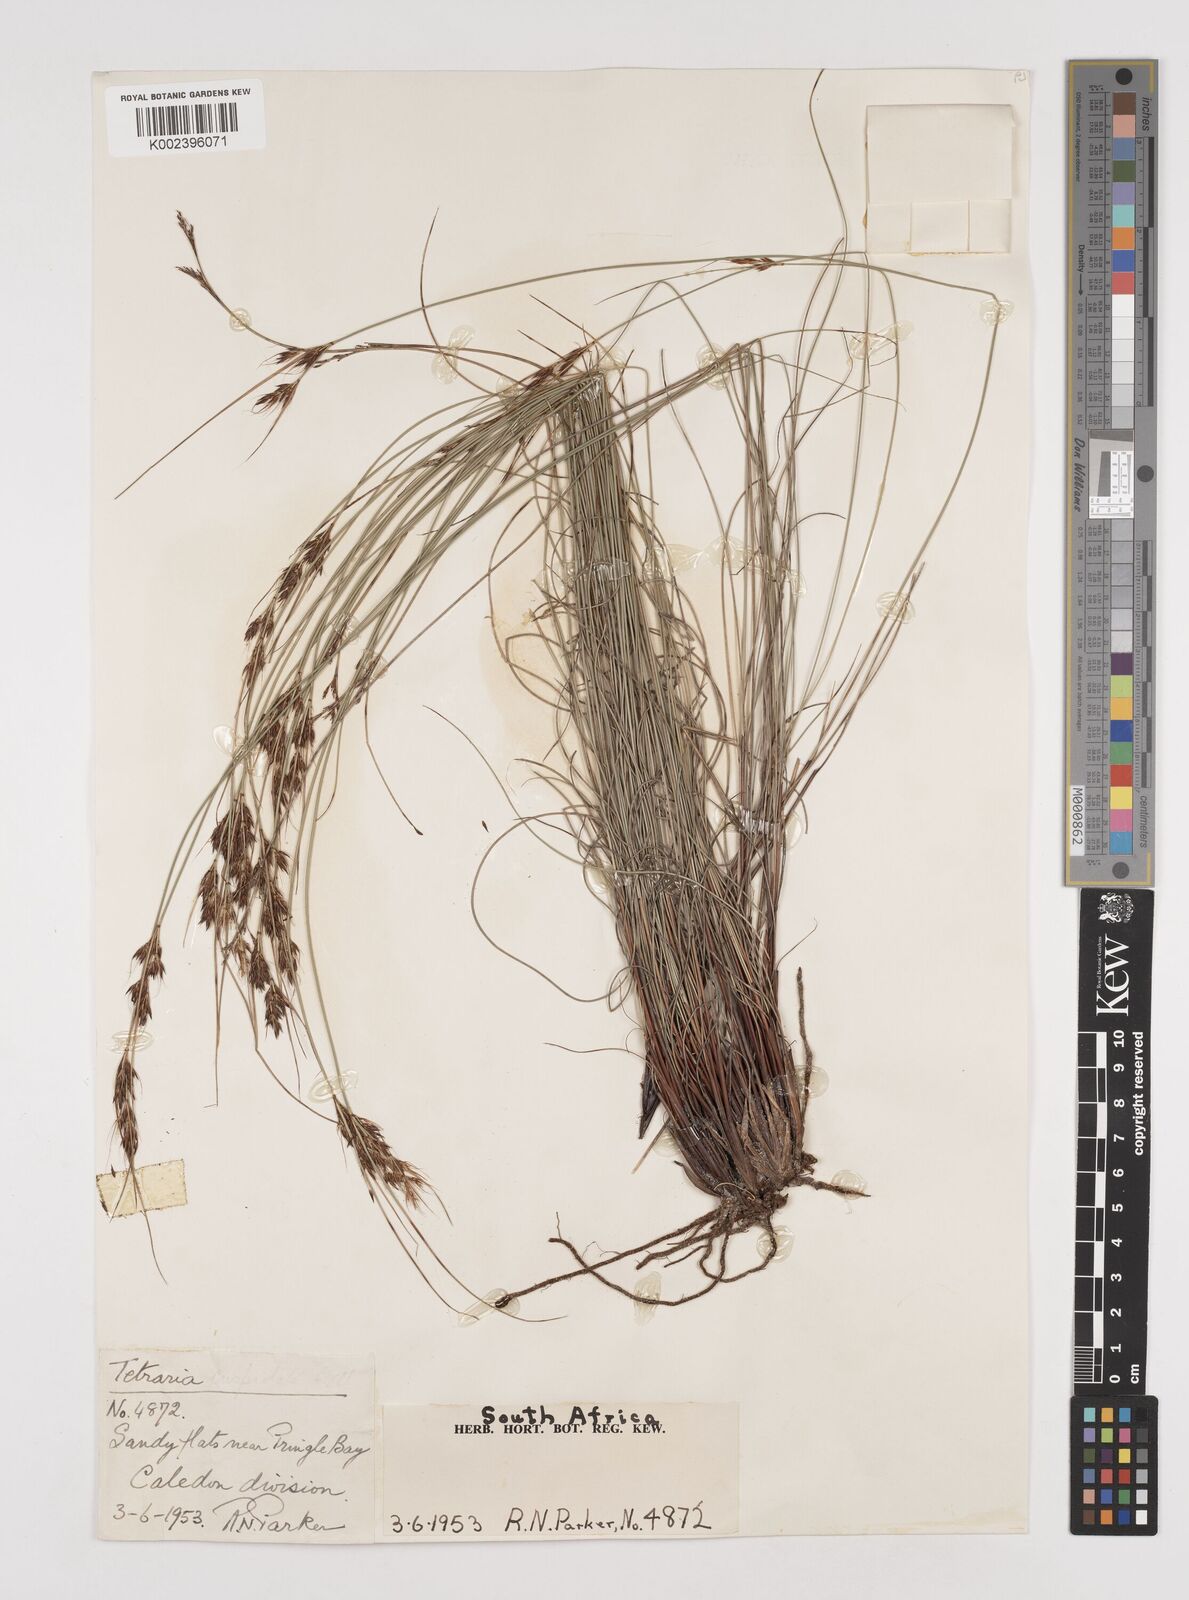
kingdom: Plantae
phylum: Tracheophyta
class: Liliopsida
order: Poales
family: Cyperaceae
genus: Schoenus
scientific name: Schoenus cuspidatus
